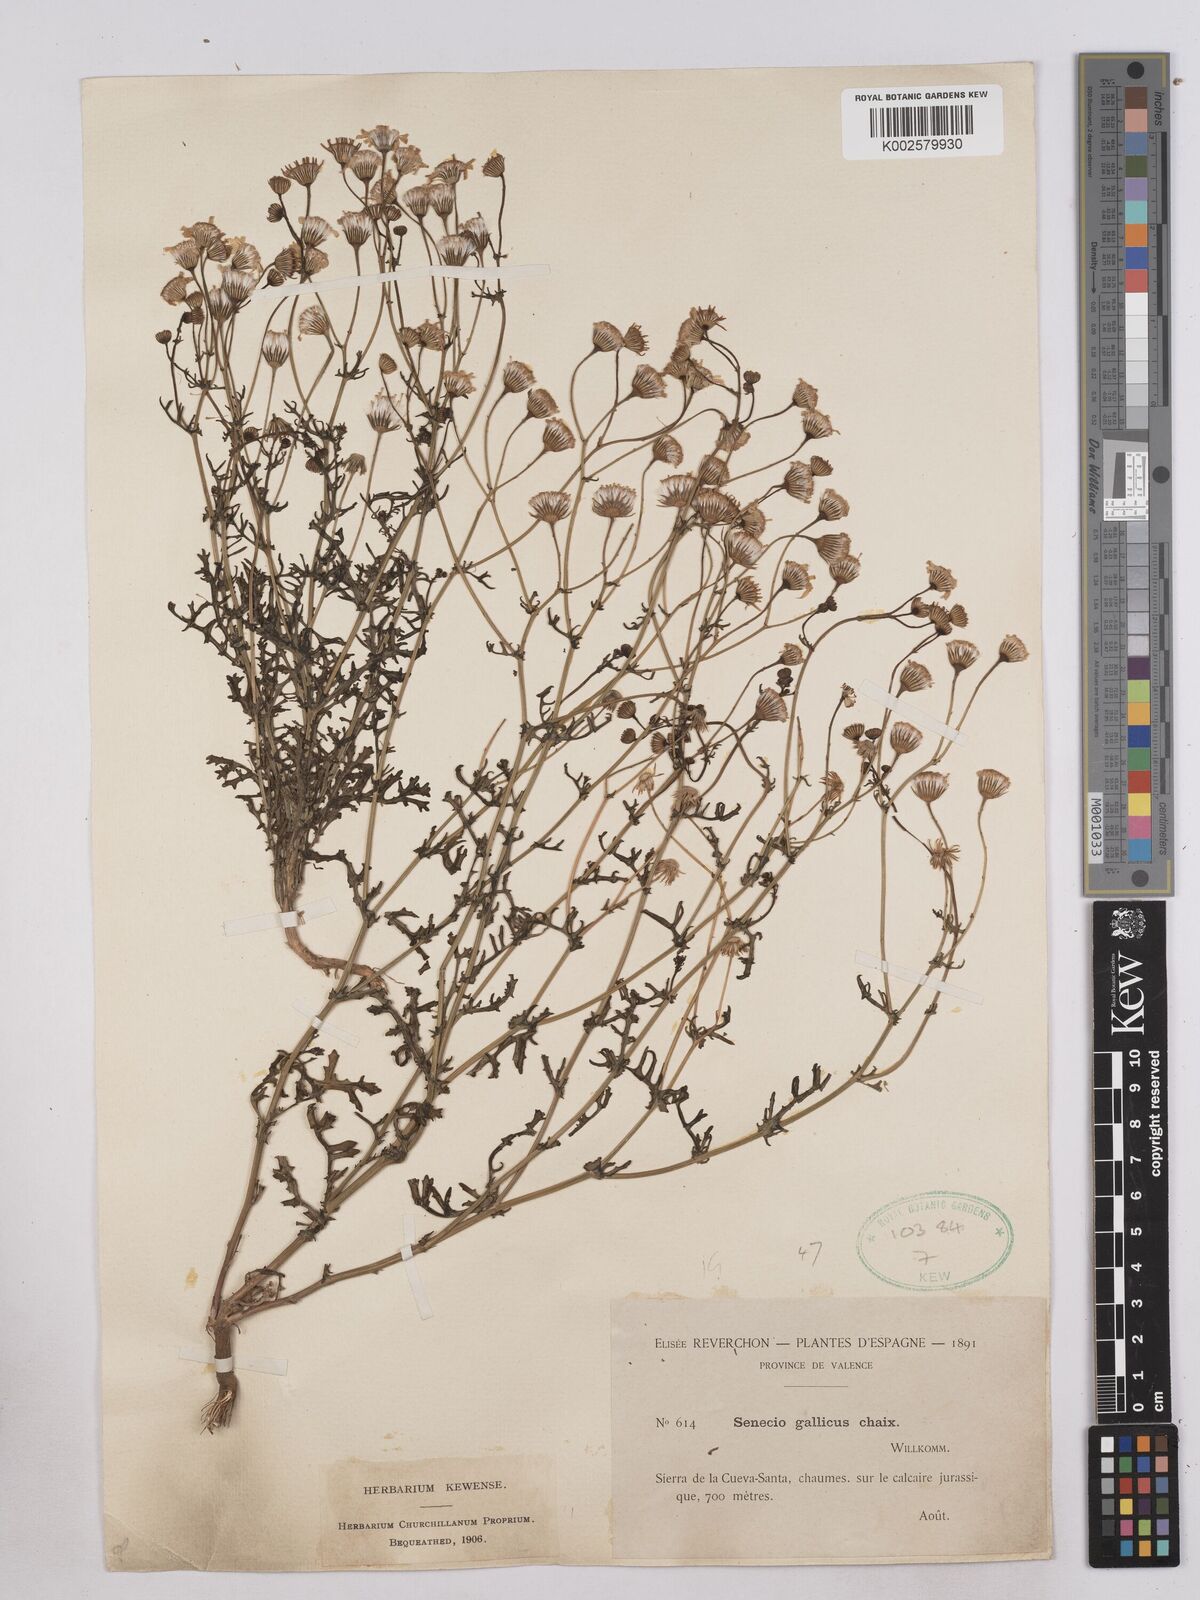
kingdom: Plantae
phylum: Tracheophyta
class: Magnoliopsida
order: Asterales
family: Asteraceae
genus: Senecio
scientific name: Senecio gallicus
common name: French groundsel
